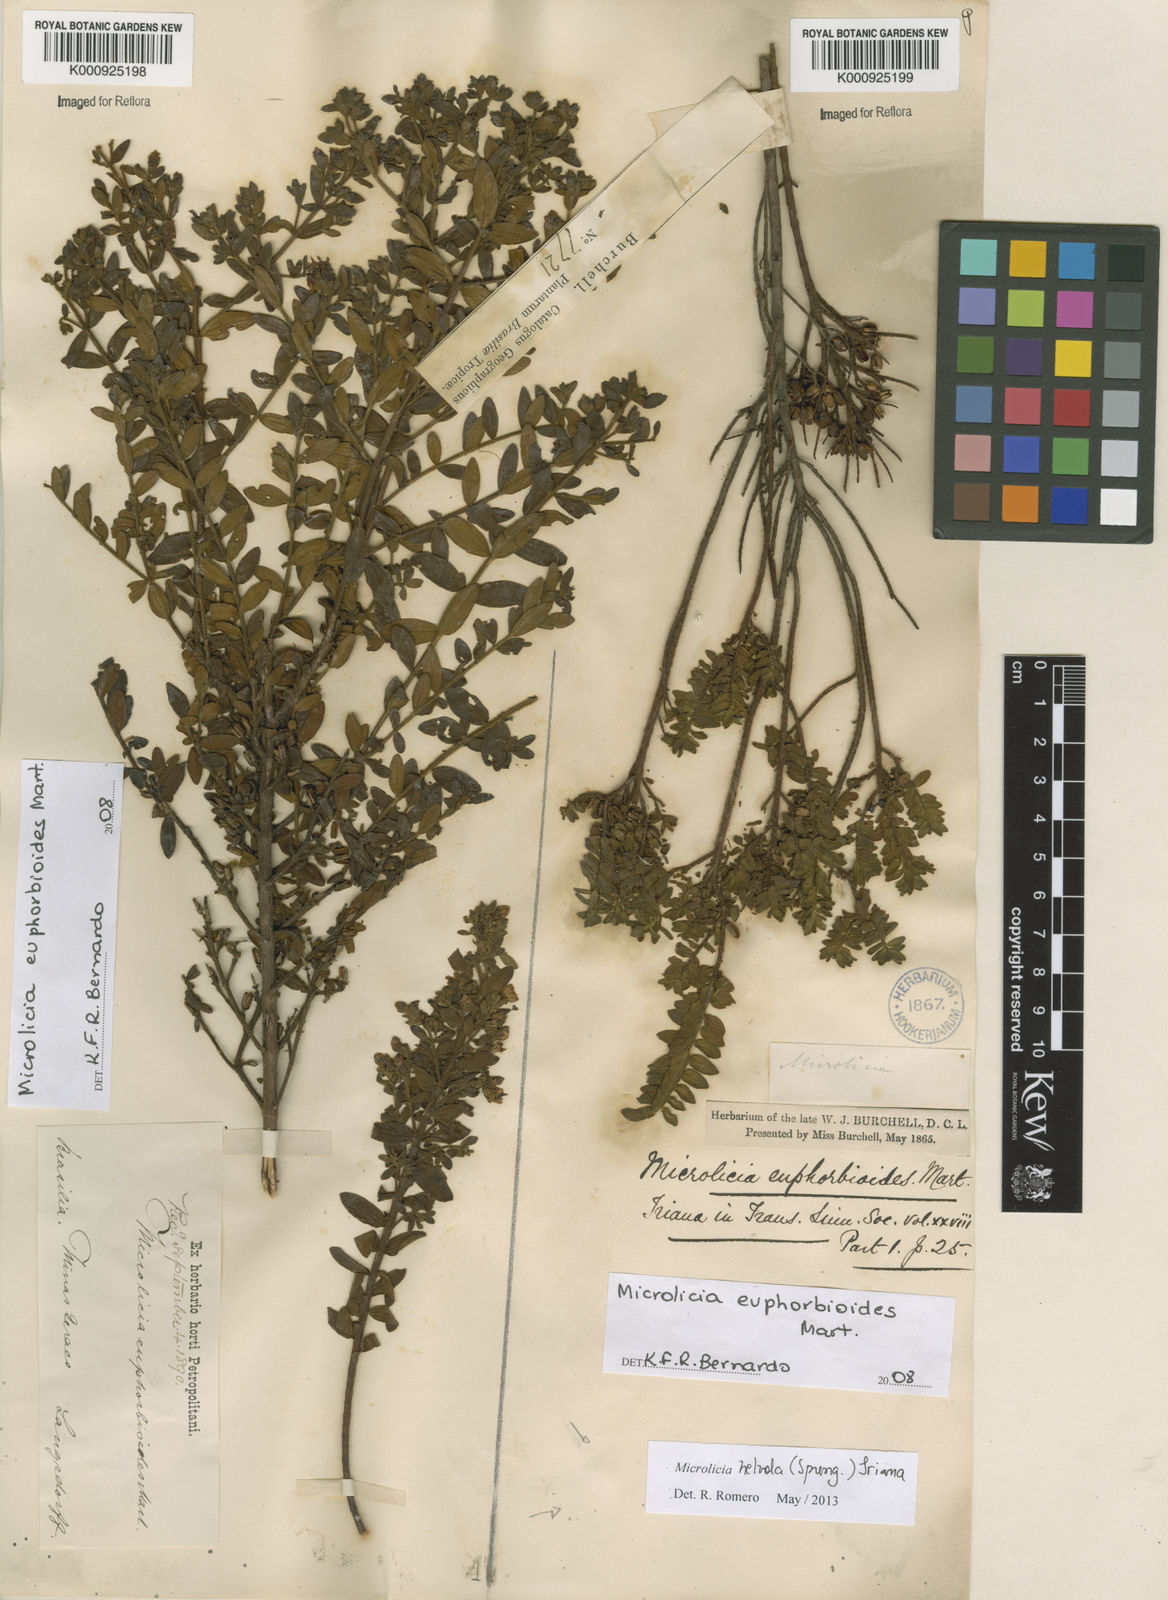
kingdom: Plantae
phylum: Tracheophyta
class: Magnoliopsida
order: Myrtales
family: Melastomataceae
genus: Microlicia
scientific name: Microlicia helvola
